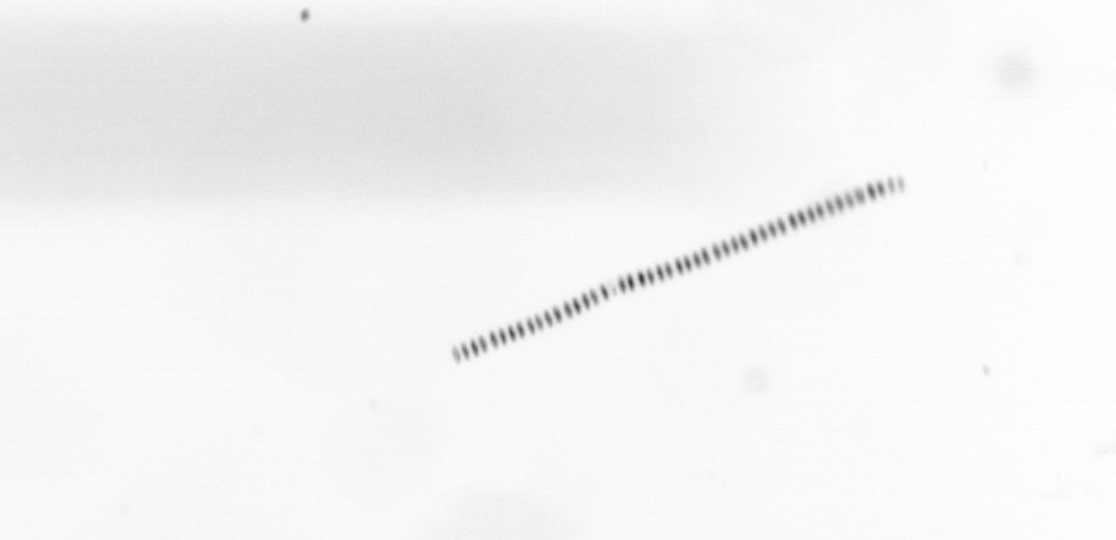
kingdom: Chromista
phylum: Ochrophyta
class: Bacillariophyceae
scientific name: Bacillariophyceae
